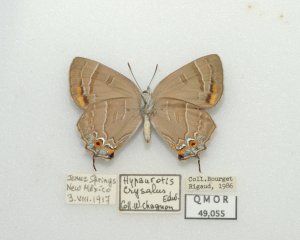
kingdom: Animalia
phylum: Arthropoda
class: Insecta
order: Lepidoptera
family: Lycaenidae
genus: Hypaurotis
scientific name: Hypaurotis crysalus
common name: Colorado Hairstreak
